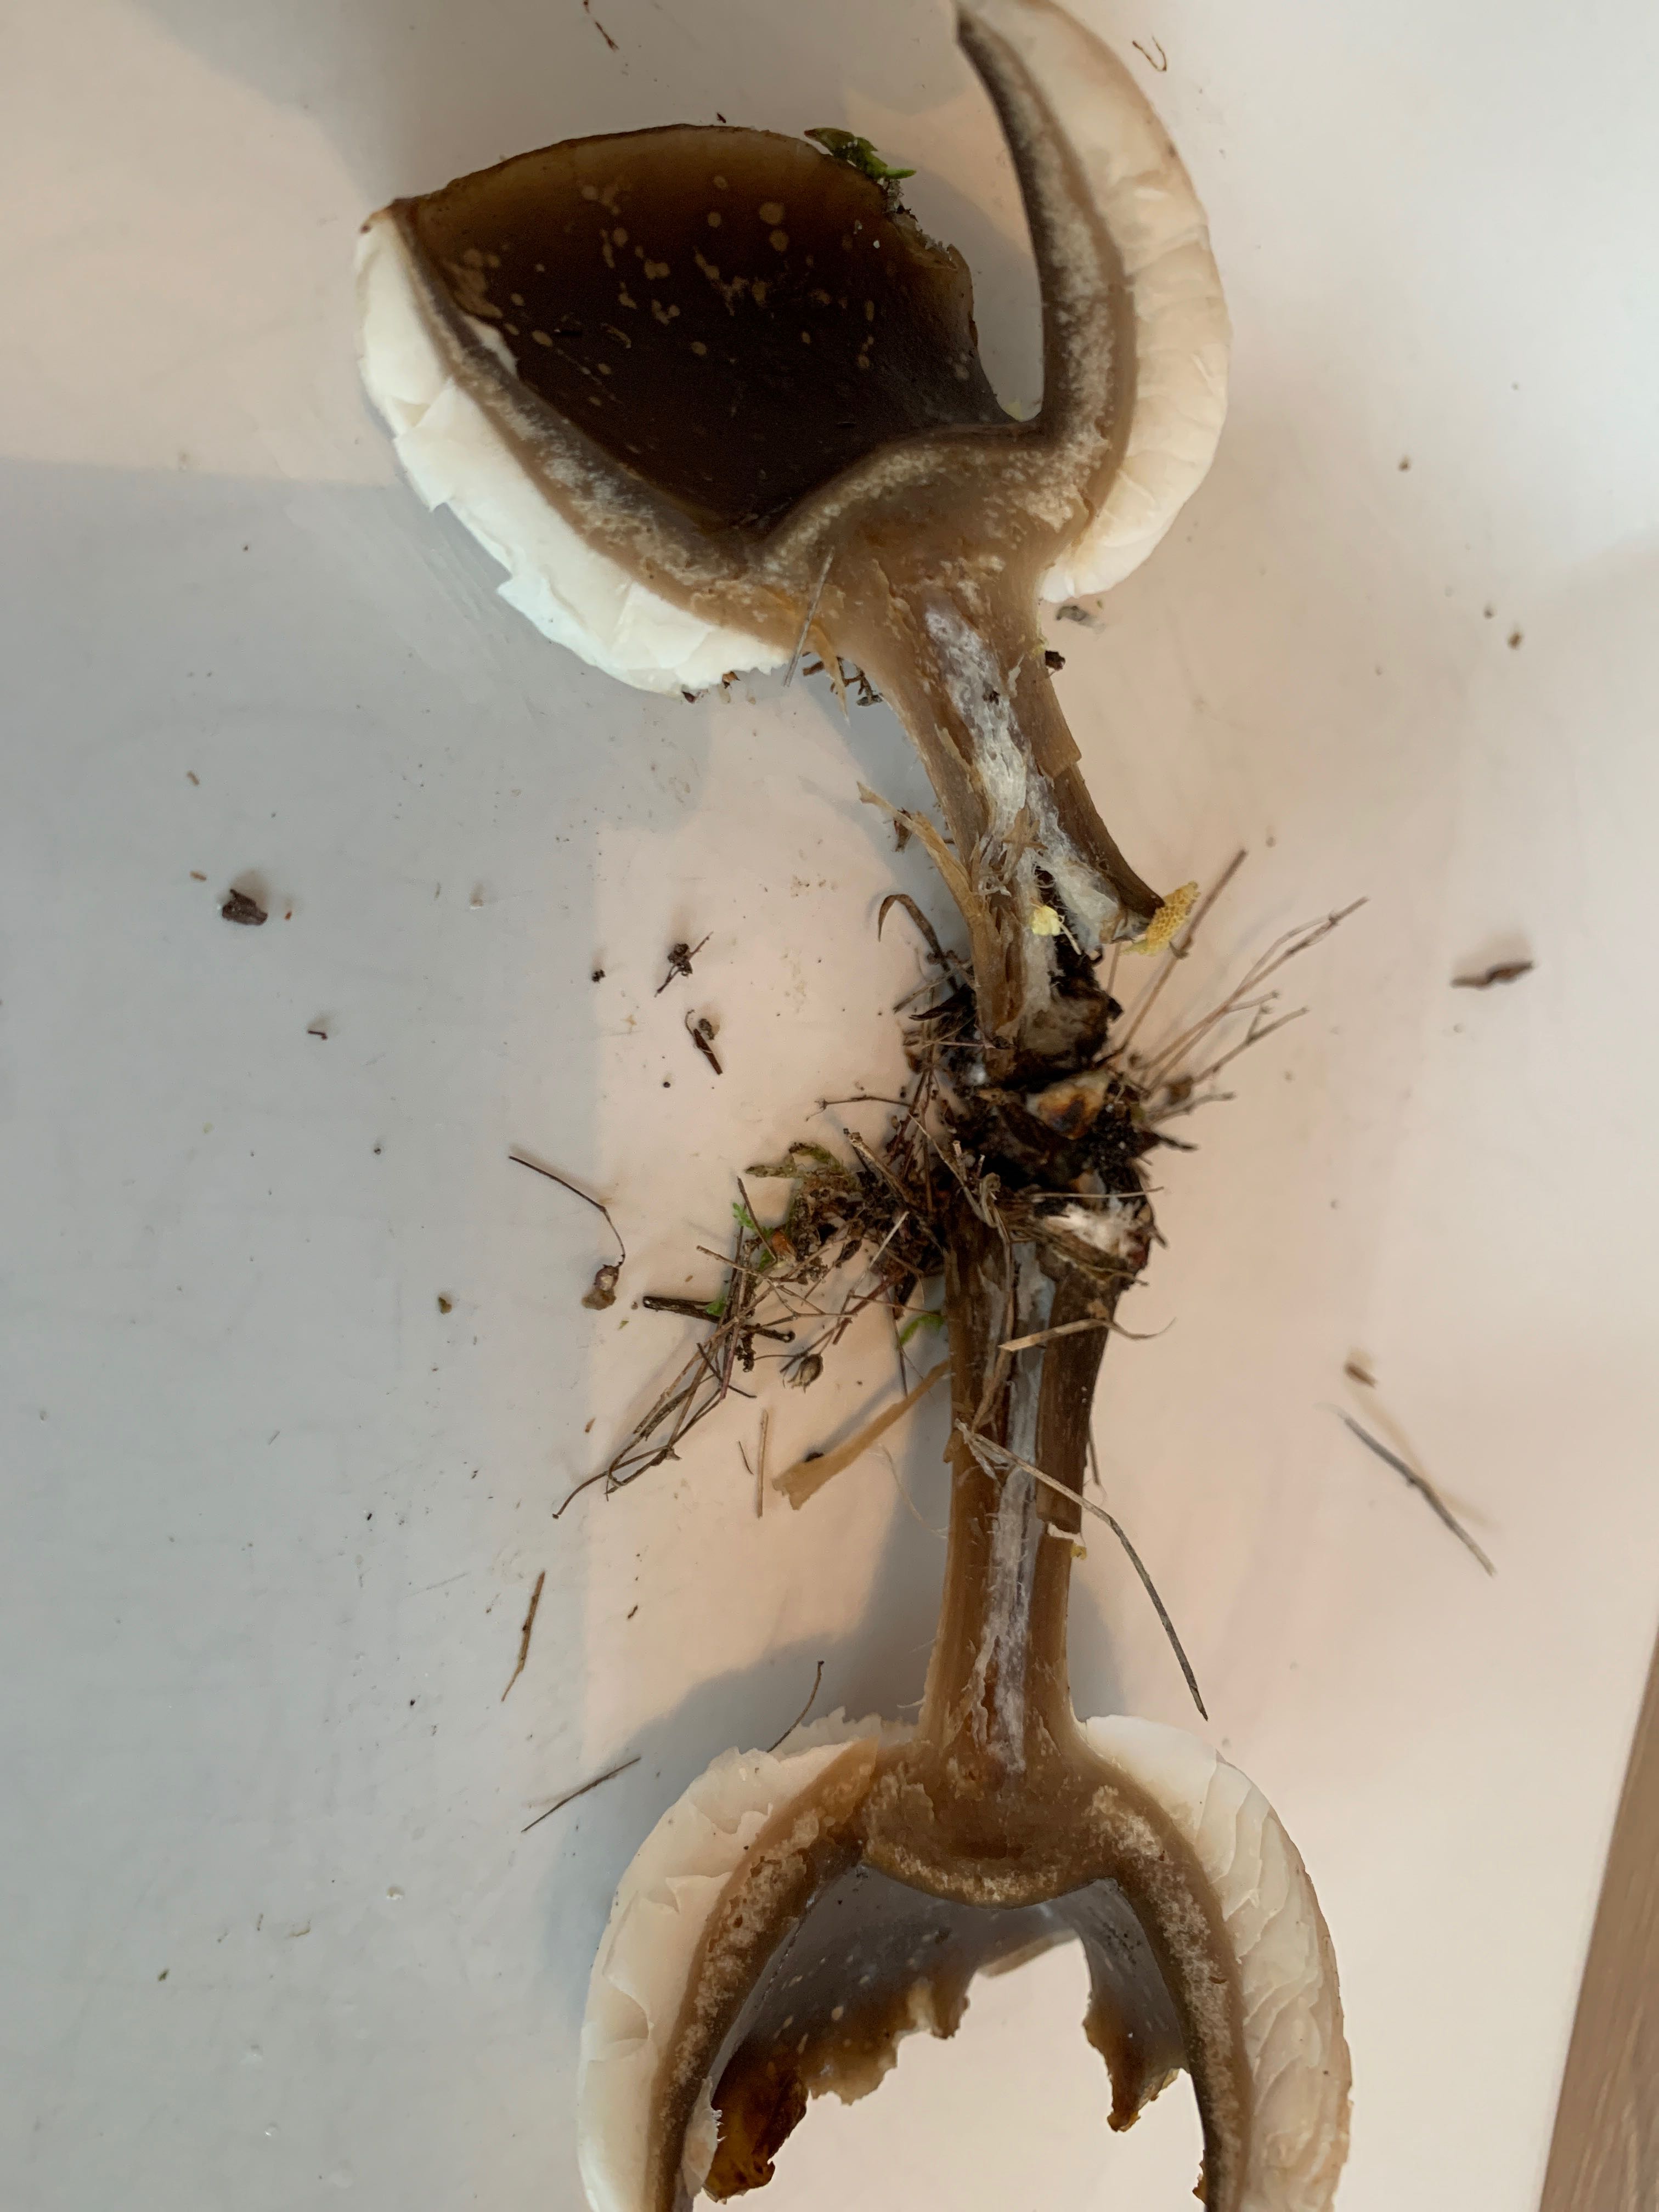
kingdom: Fungi
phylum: Basidiomycota
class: Agaricomycetes
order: Agaricales
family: Tricholomataceae
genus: Melanoleuca
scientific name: Melanoleuca
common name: munkehat
